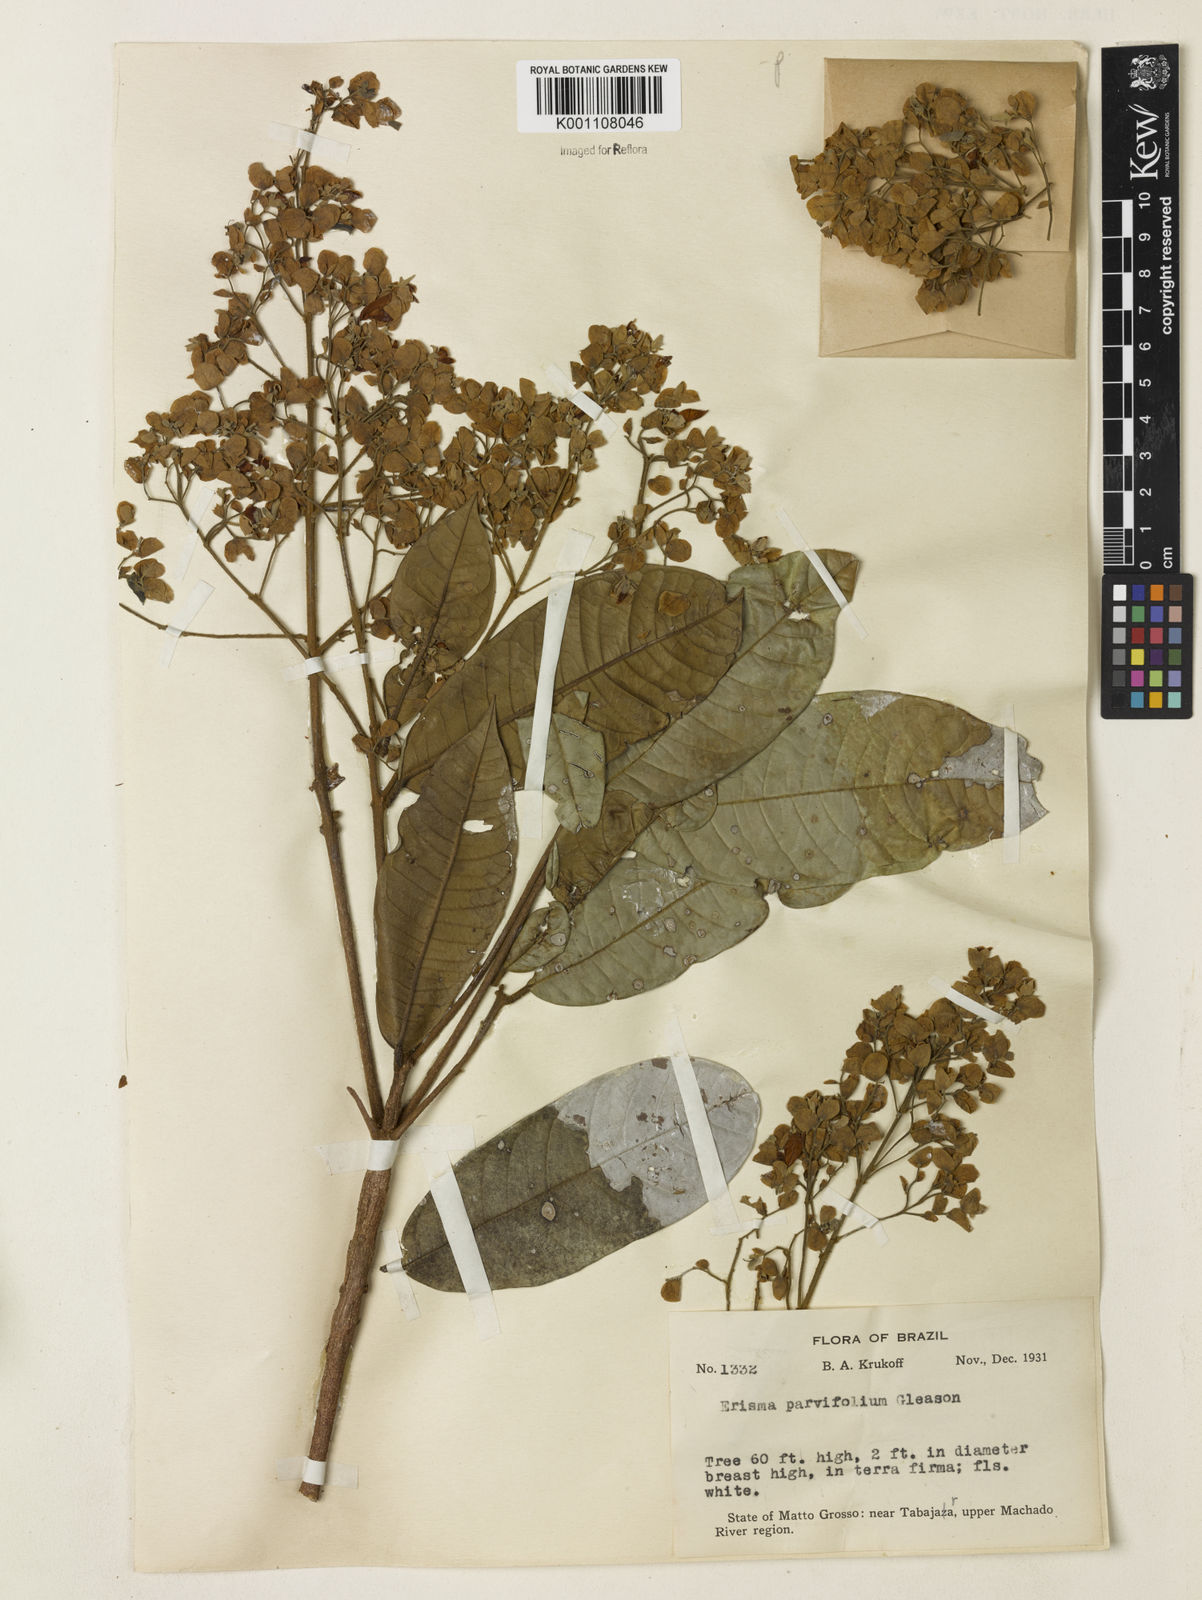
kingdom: Plantae
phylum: Tracheophyta
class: Magnoliopsida
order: Myrtales
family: Vochysiaceae
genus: Erisma
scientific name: Erisma
